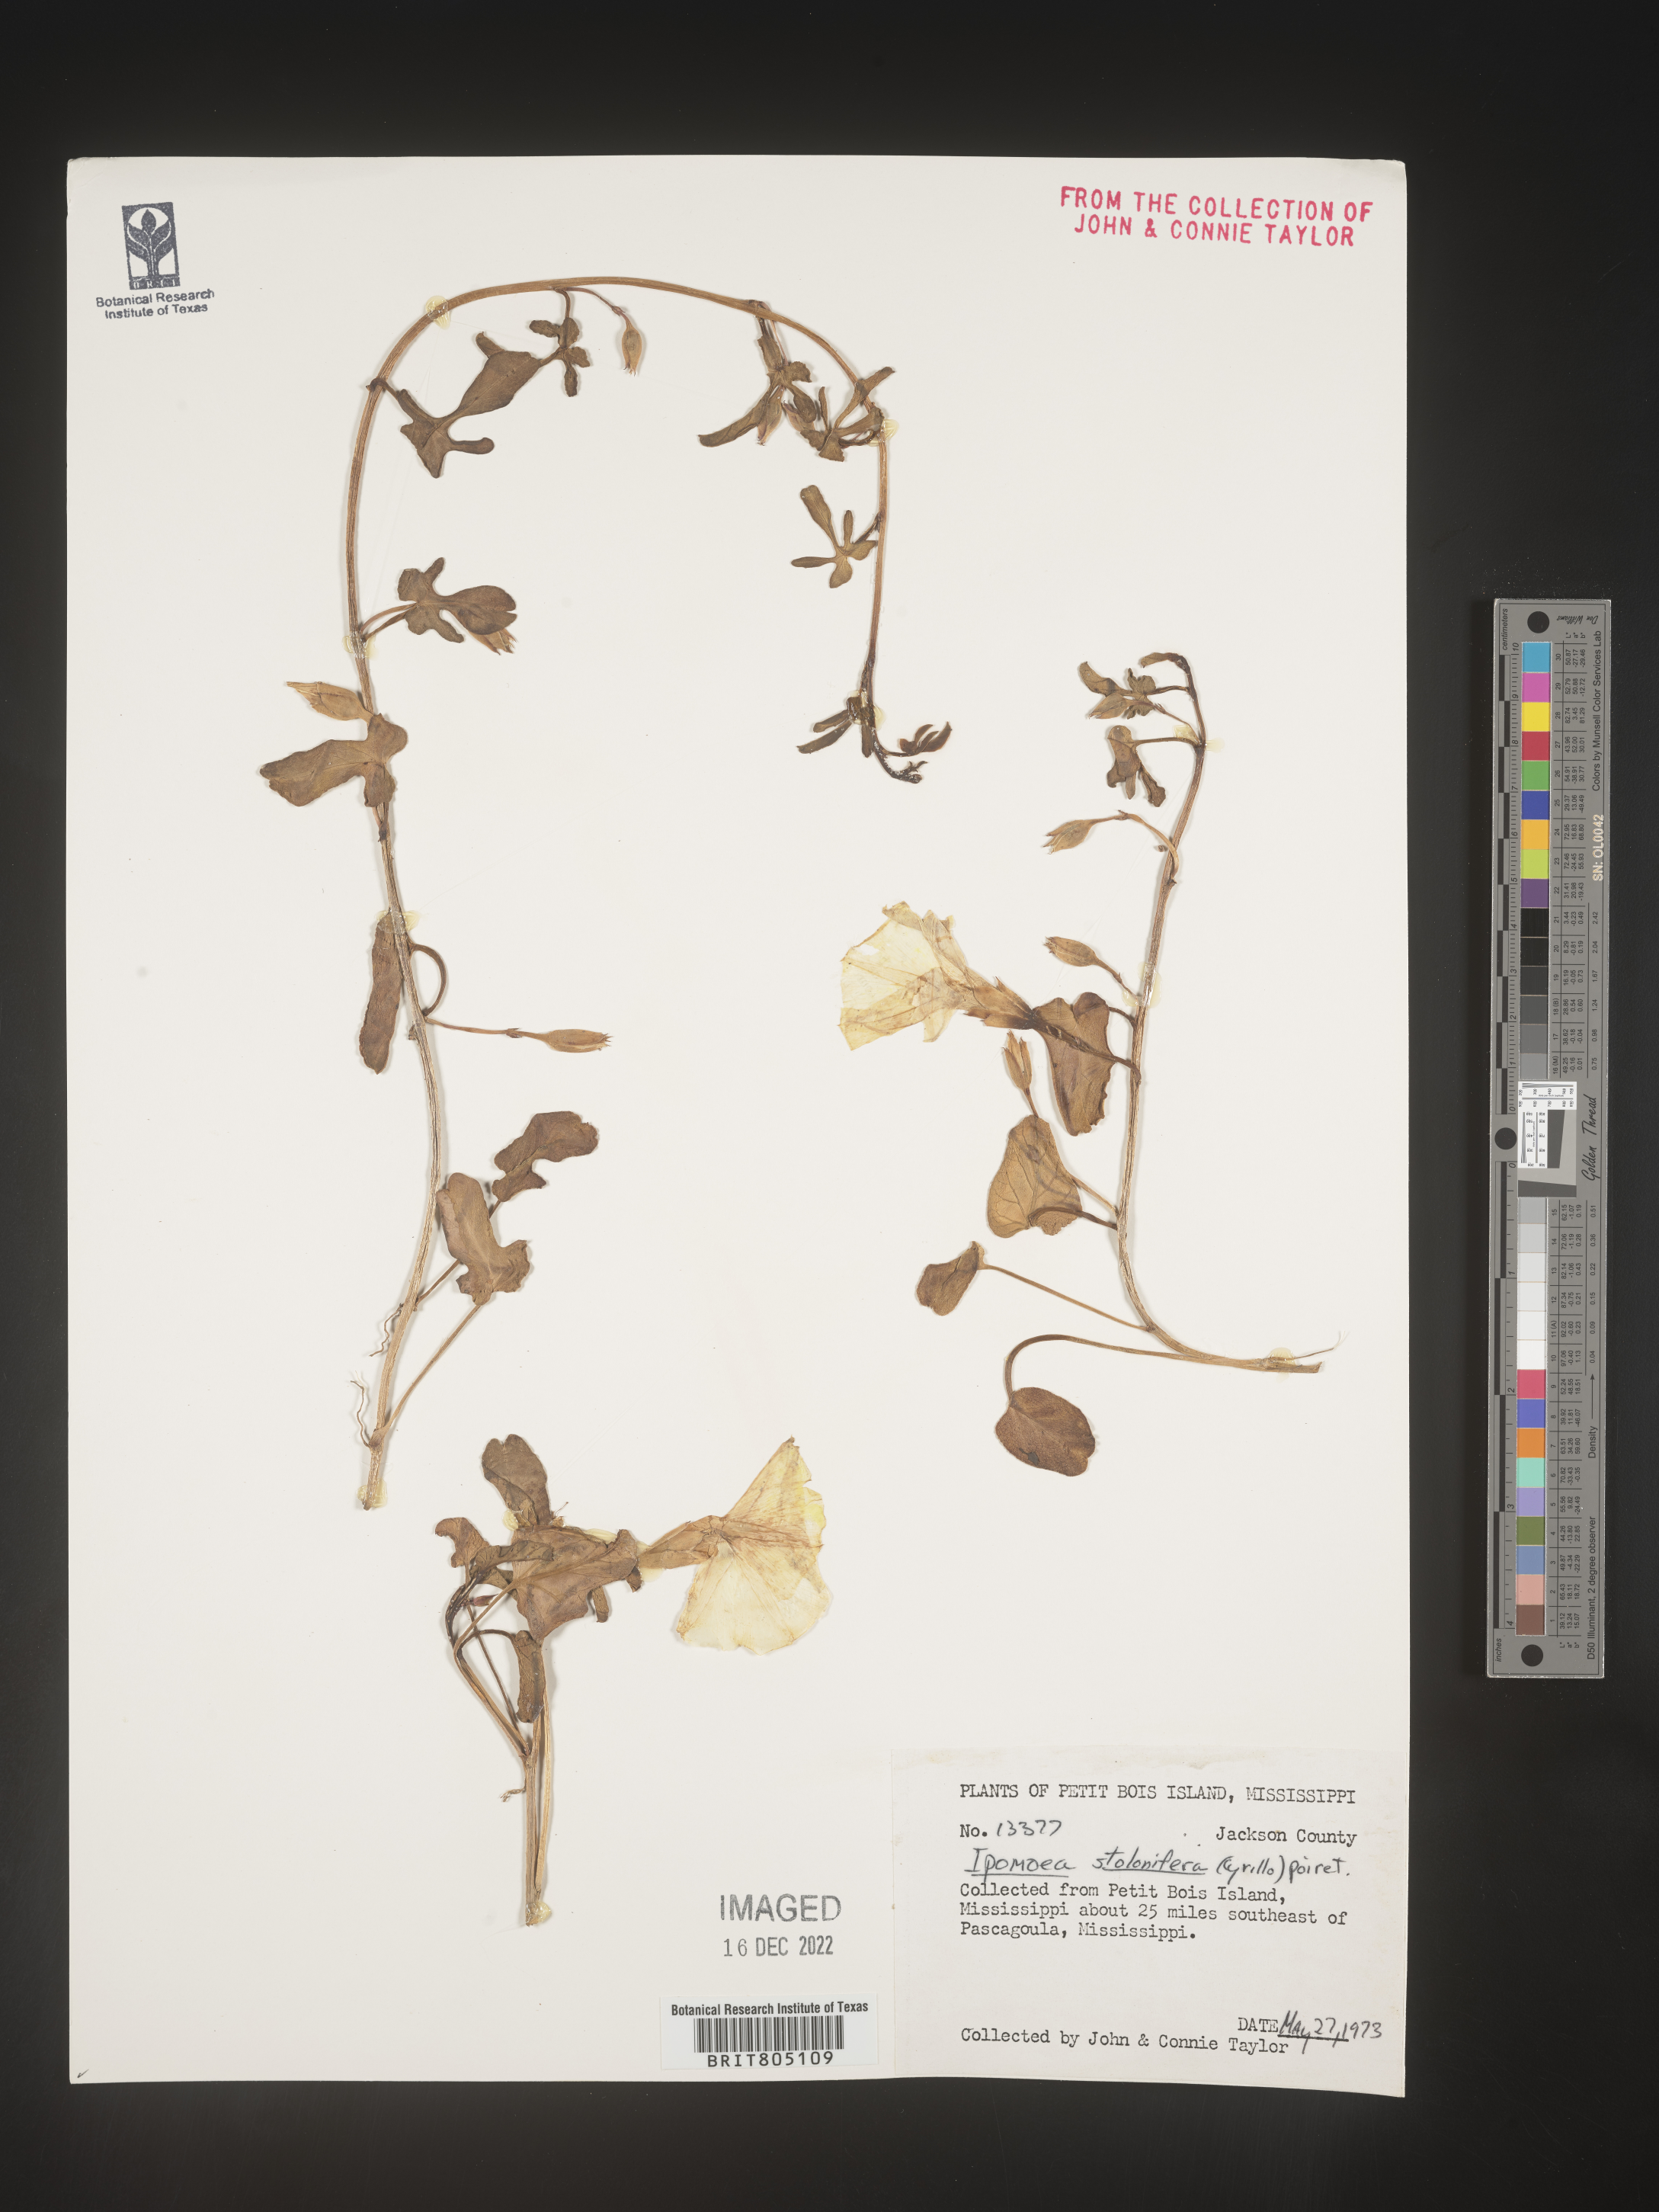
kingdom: Plantae
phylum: Tracheophyta
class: Magnoliopsida
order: Solanales
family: Convolvulaceae
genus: Ipomoea
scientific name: Ipomoea imperati
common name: Fiddle-leaf morning-glory
